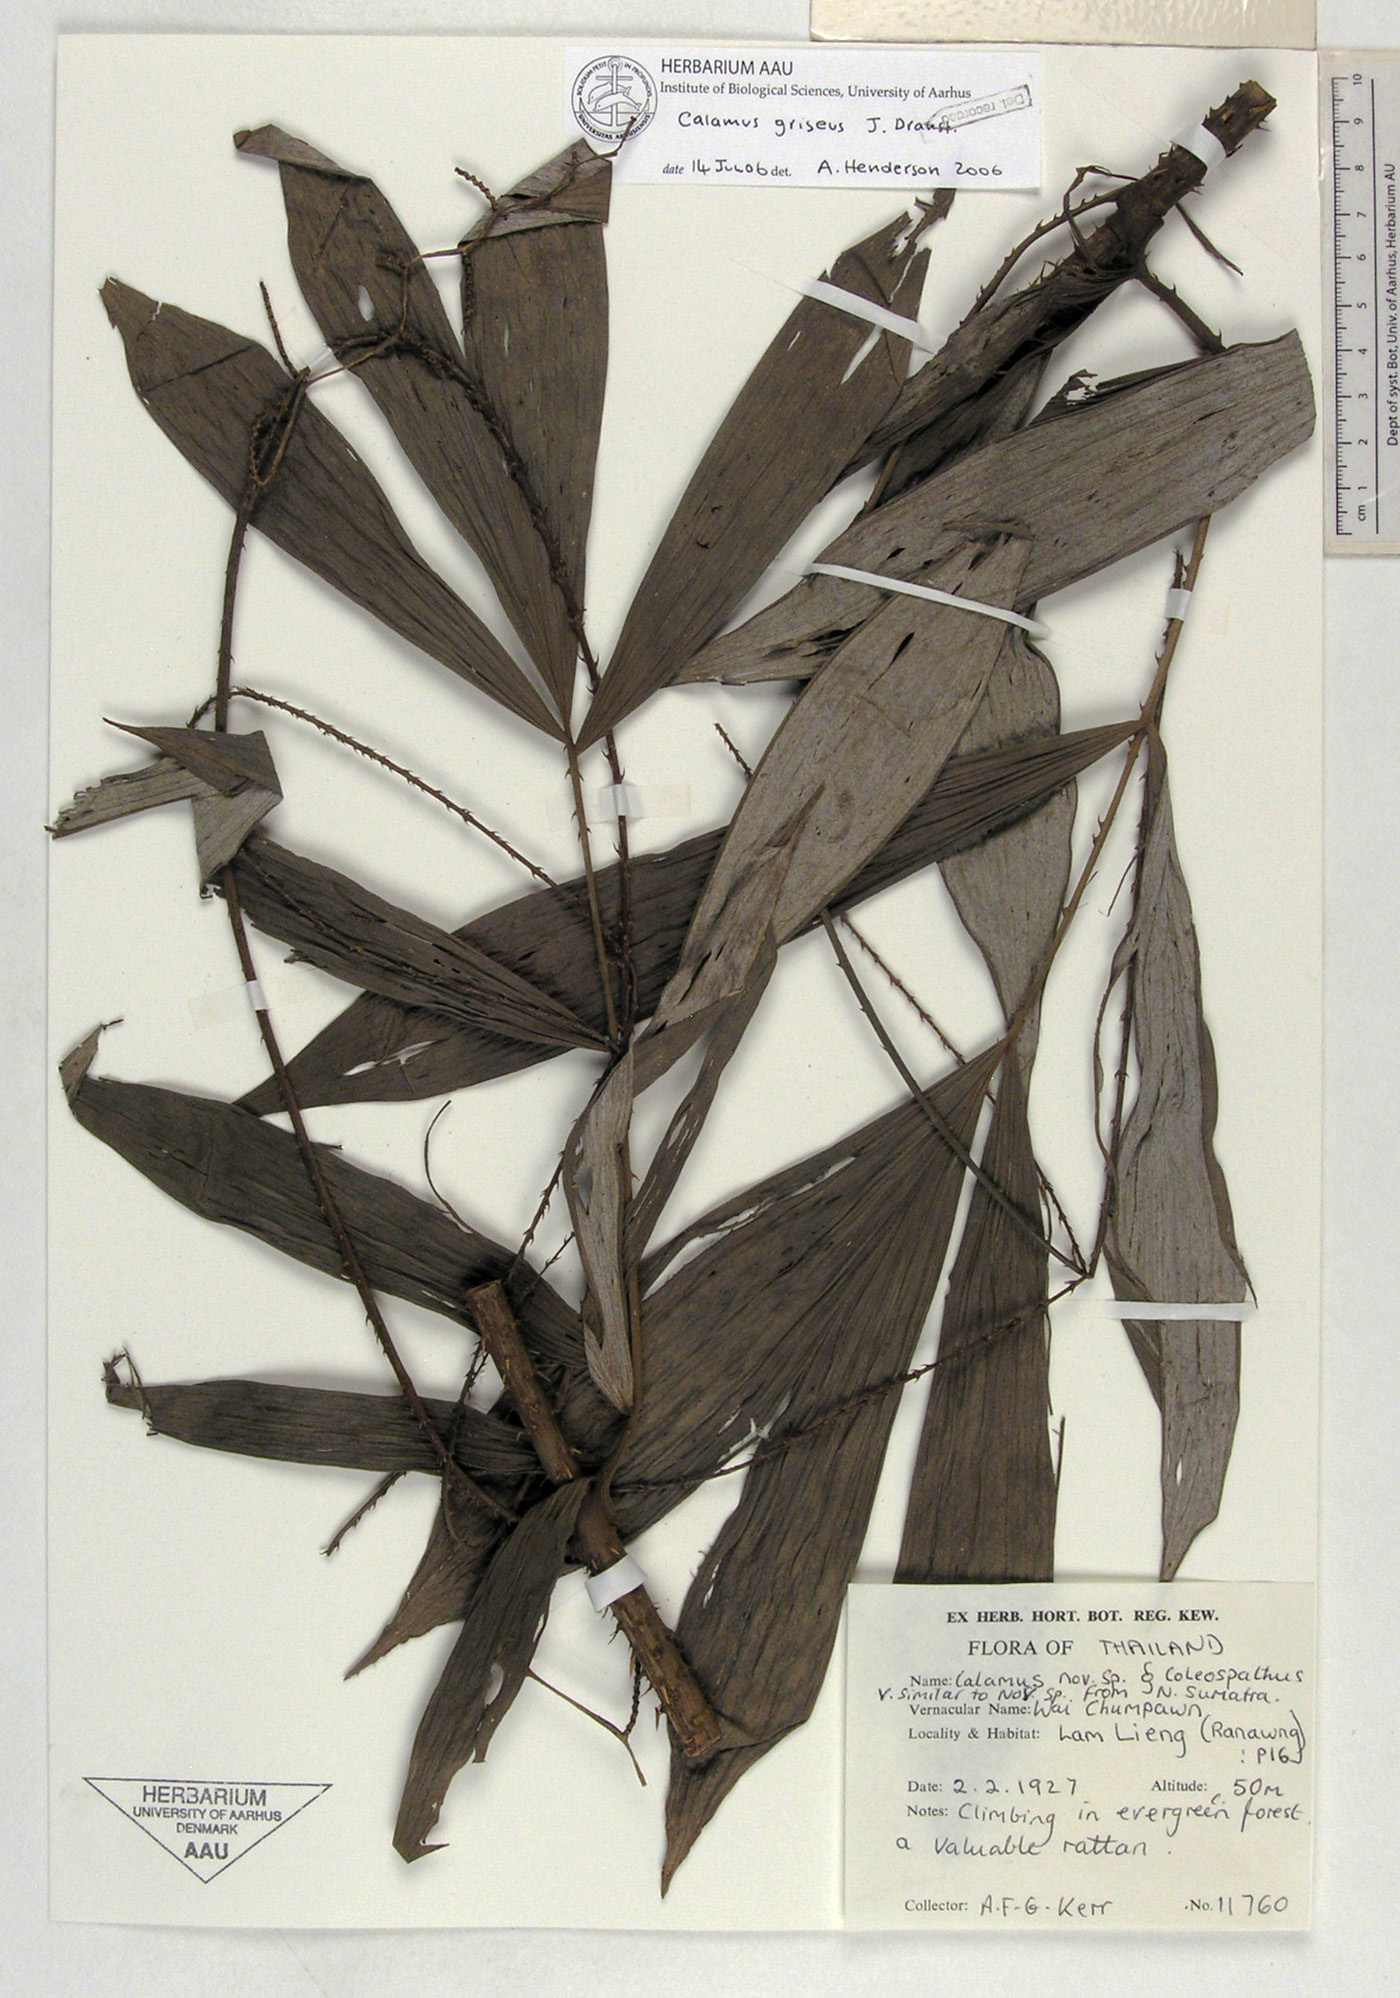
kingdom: Plantae
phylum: Tracheophyta
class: Liliopsida
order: Arecales
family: Arecaceae
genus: Calamus
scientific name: Calamus griseus
